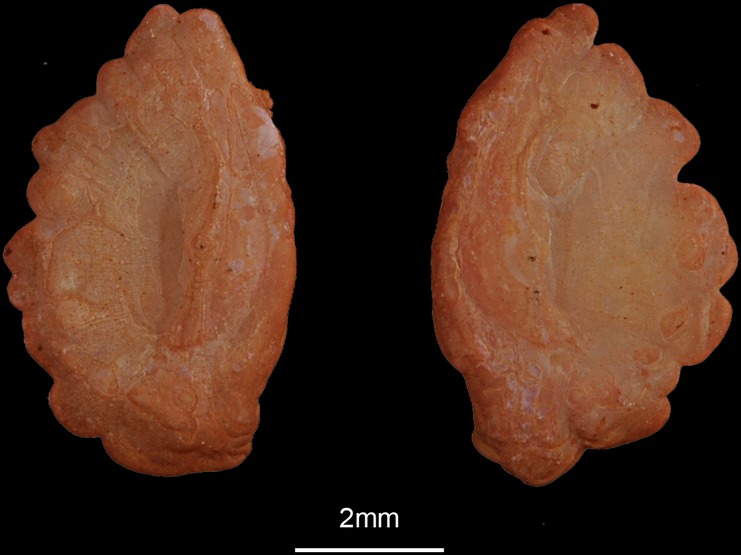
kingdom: Animalia
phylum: Chordata
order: Lophiiformes
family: Lophiidae
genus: Lophius
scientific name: Lophius piscatorius
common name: Angler
